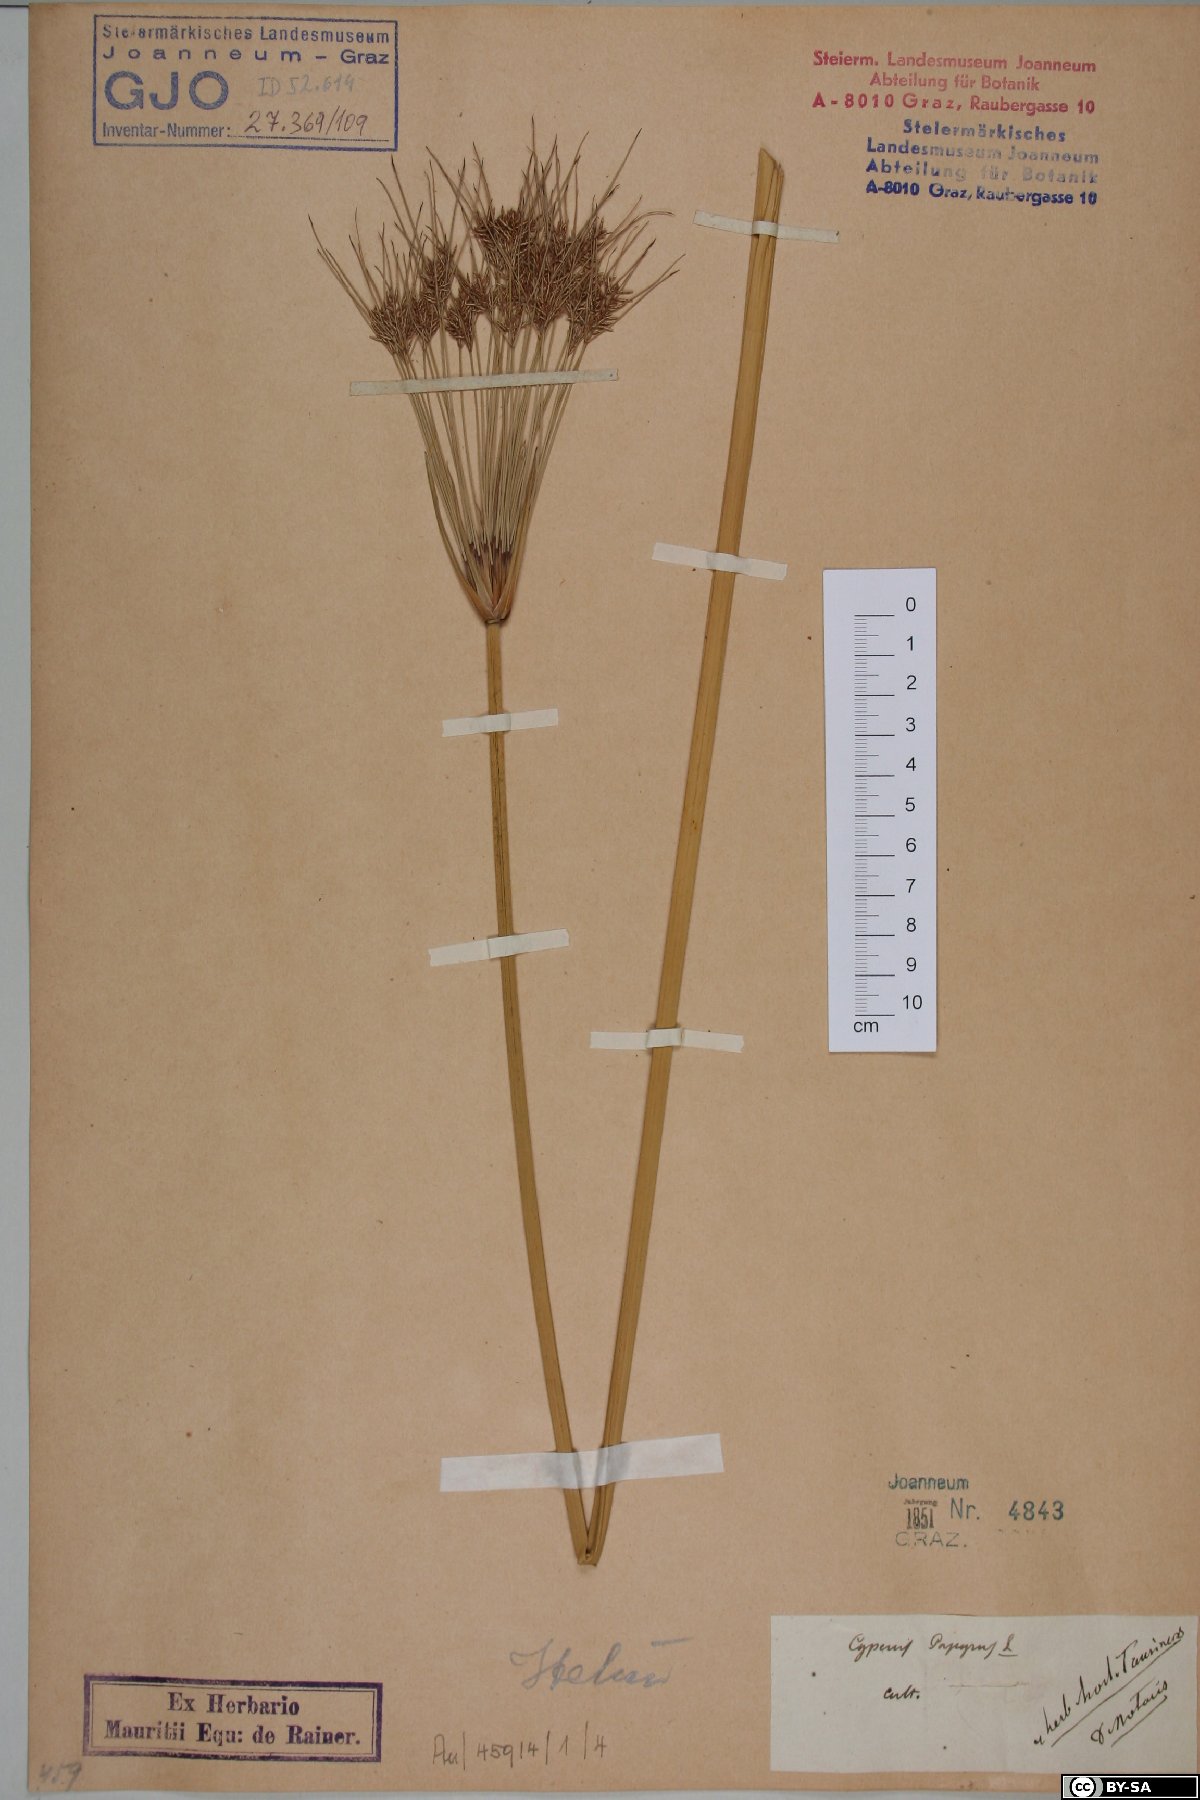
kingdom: Plantae
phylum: Tracheophyta
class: Liliopsida
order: Poales
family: Cyperaceae
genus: Cyperus
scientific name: Cyperus papyrus
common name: Papyrus
